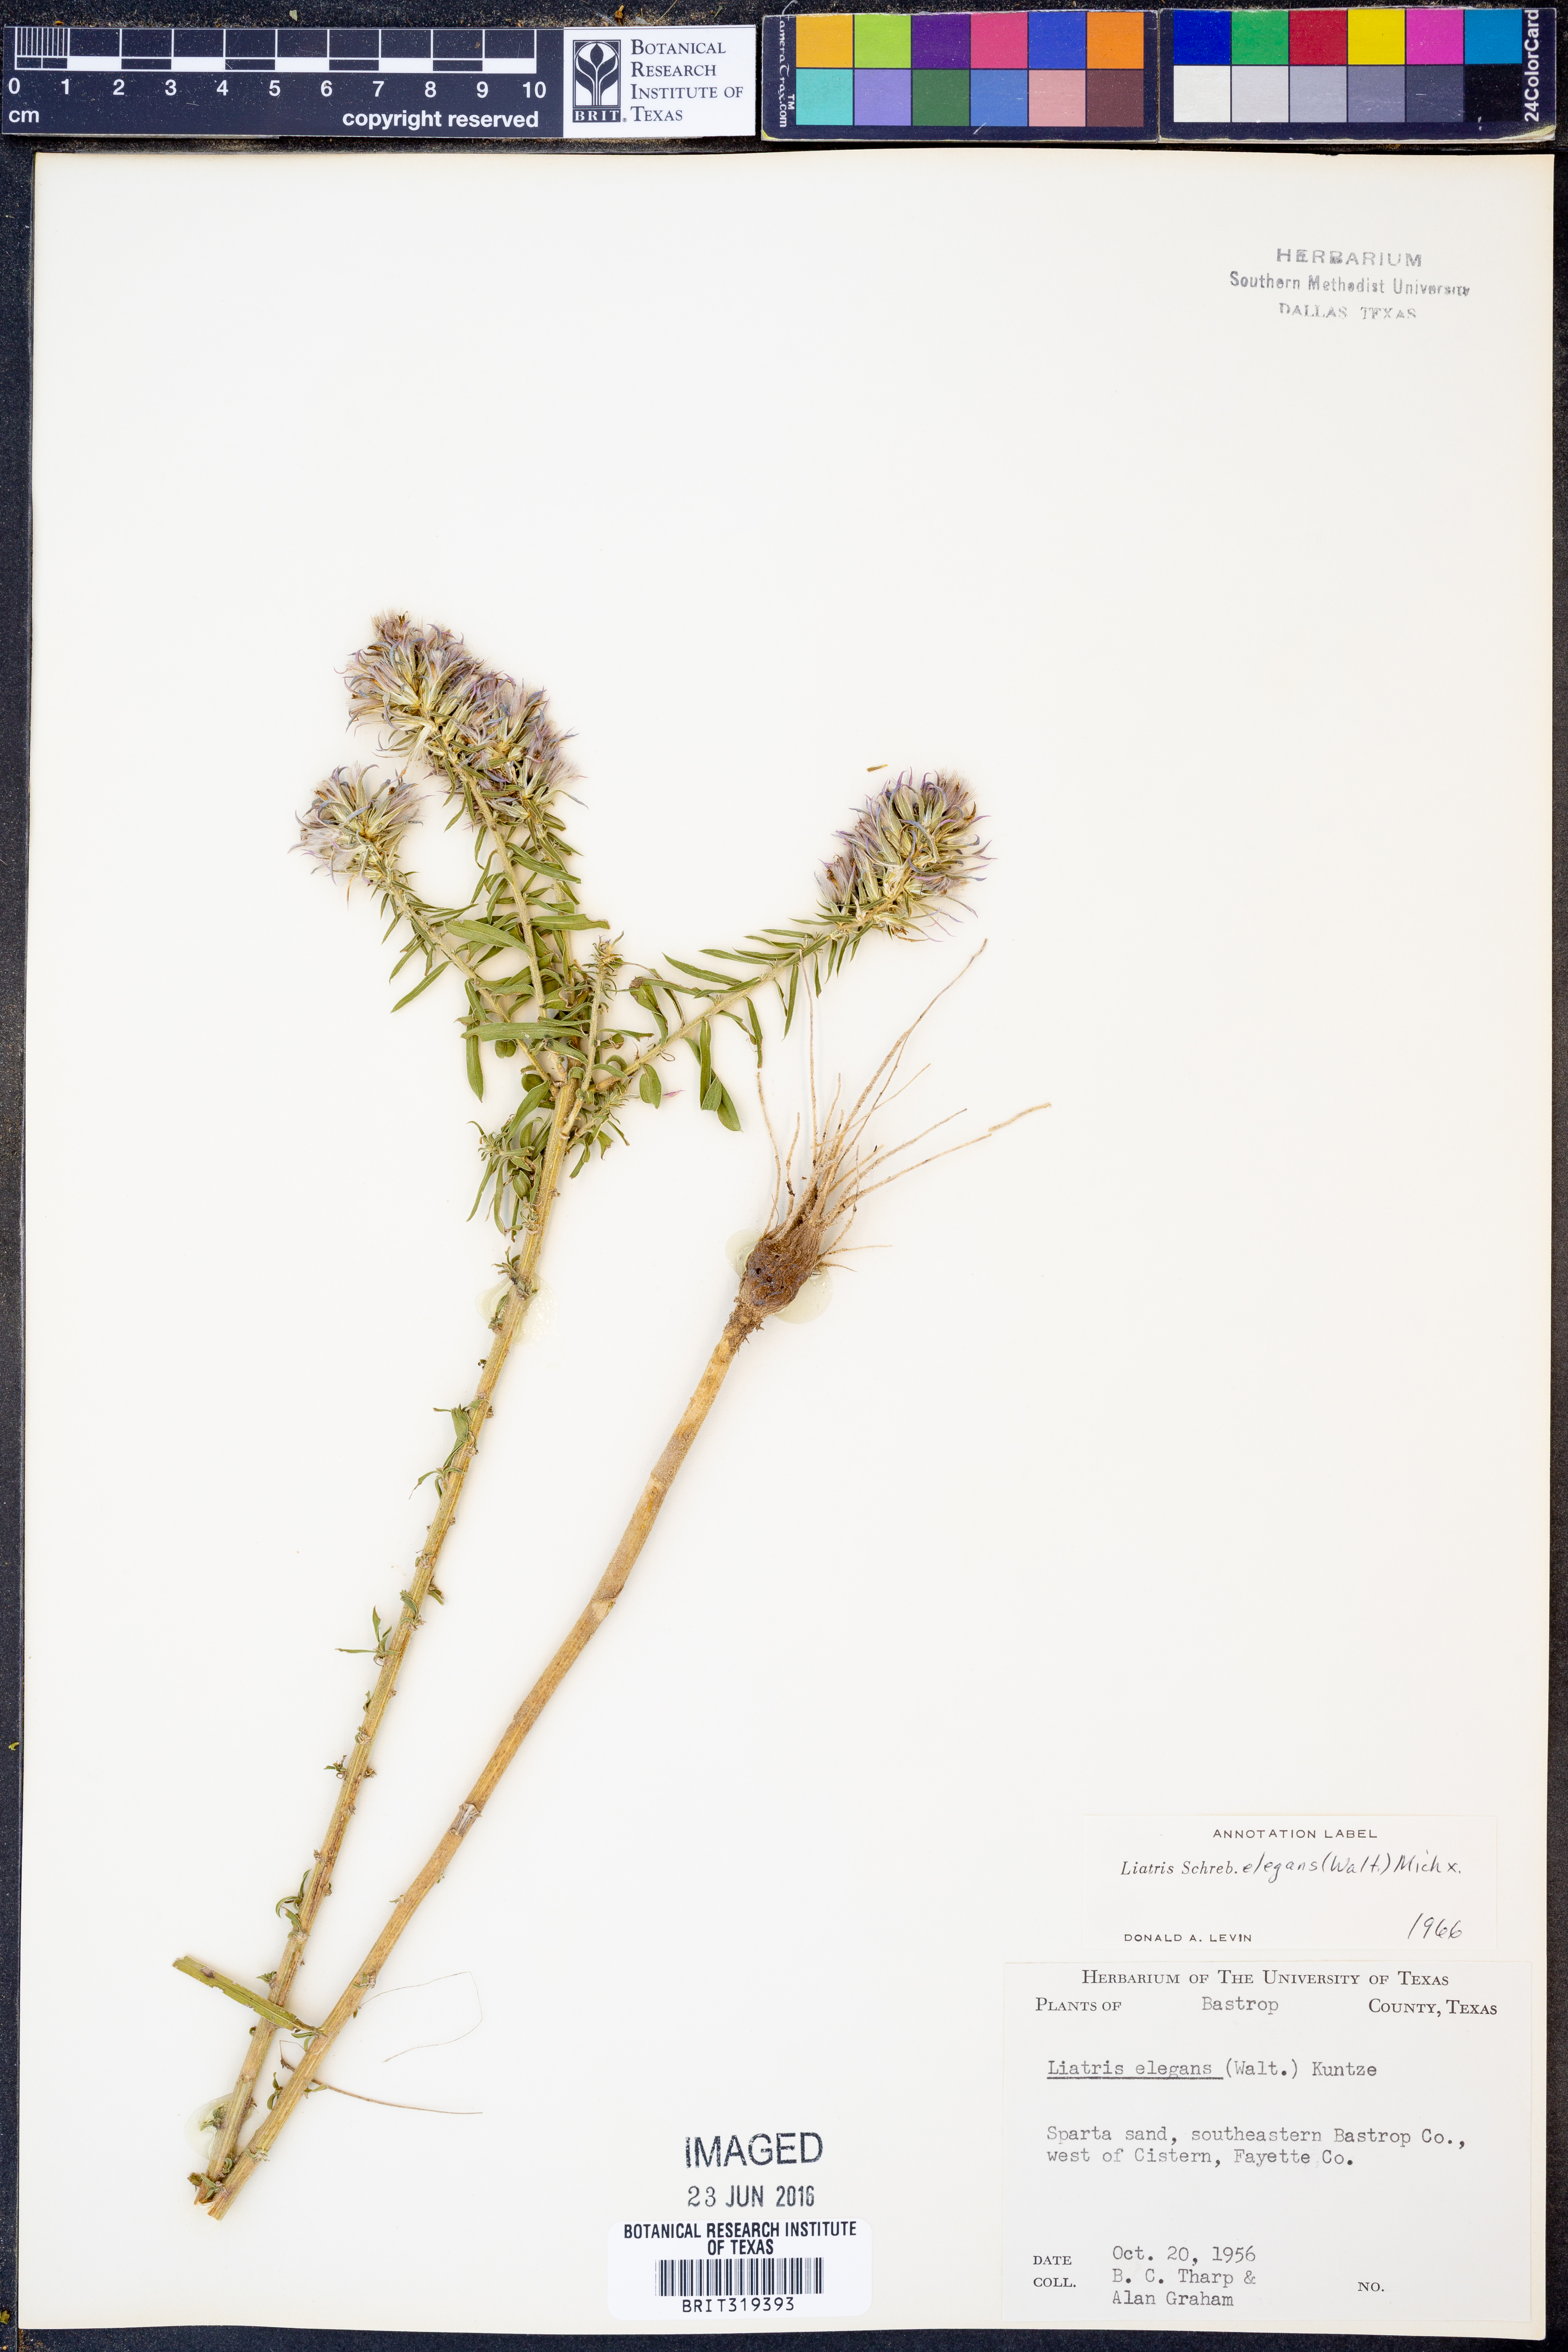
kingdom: Plantae
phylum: Tracheophyta
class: Magnoliopsida
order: Asterales
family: Asteraceae
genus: Liatris
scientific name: Liatris elegans
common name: Pinkscale gayfeather
